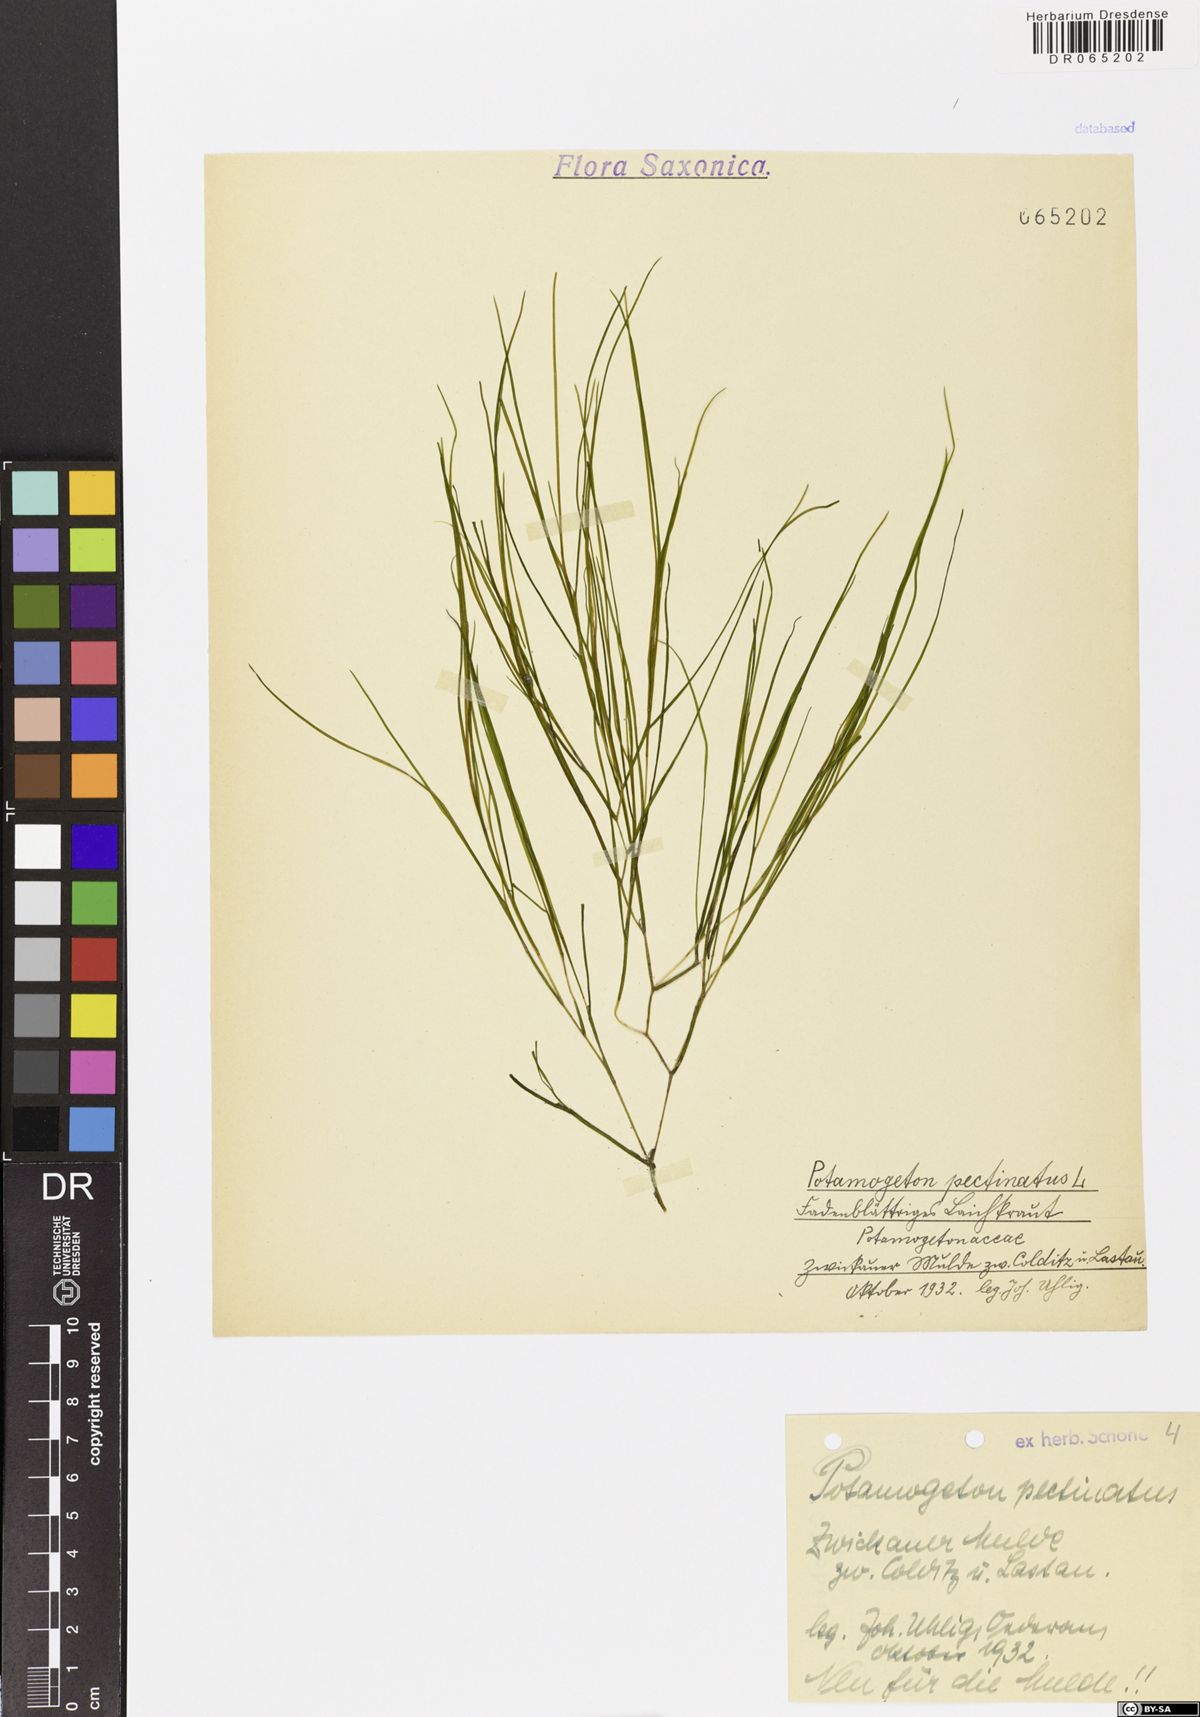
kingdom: Plantae
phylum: Tracheophyta
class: Liliopsida
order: Alismatales
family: Potamogetonaceae
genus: Stuckenia
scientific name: Stuckenia pectinata
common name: Sago pondweed
